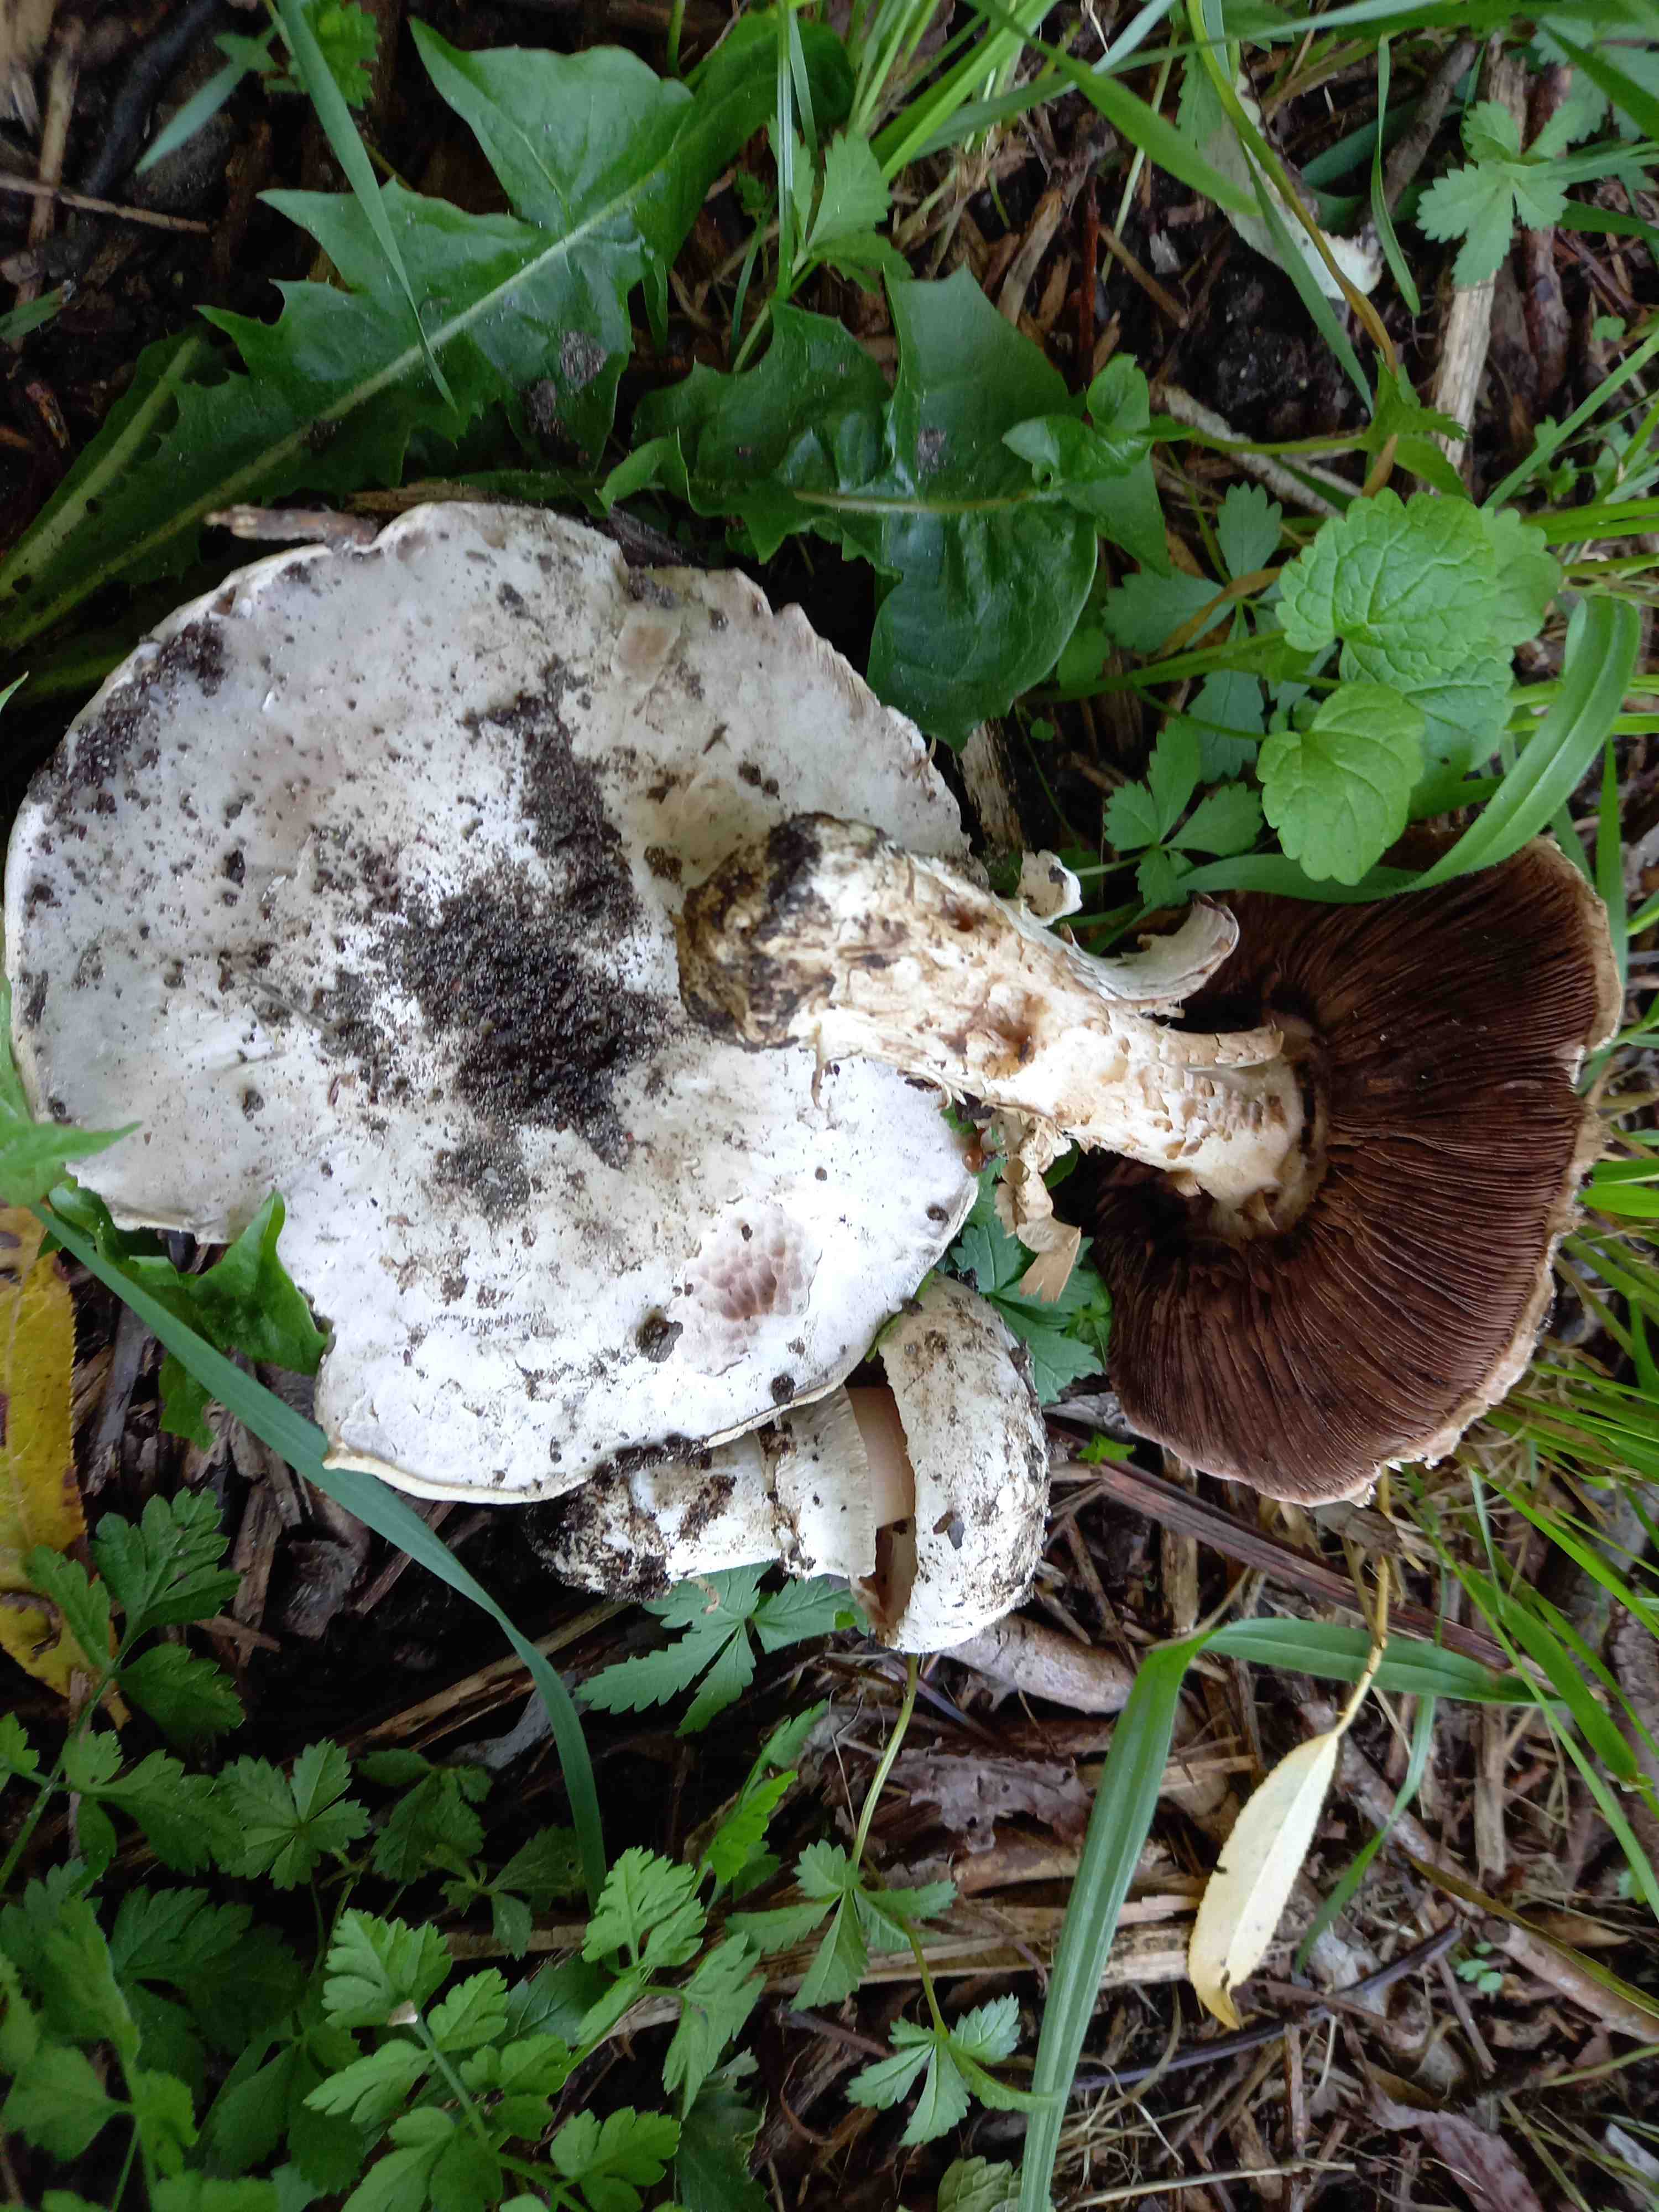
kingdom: Fungi
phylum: Basidiomycota
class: Agaricomycetes
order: Agaricales
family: Agaricaceae
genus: Agaricus
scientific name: Agaricus bitorquis
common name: vej-champignon
